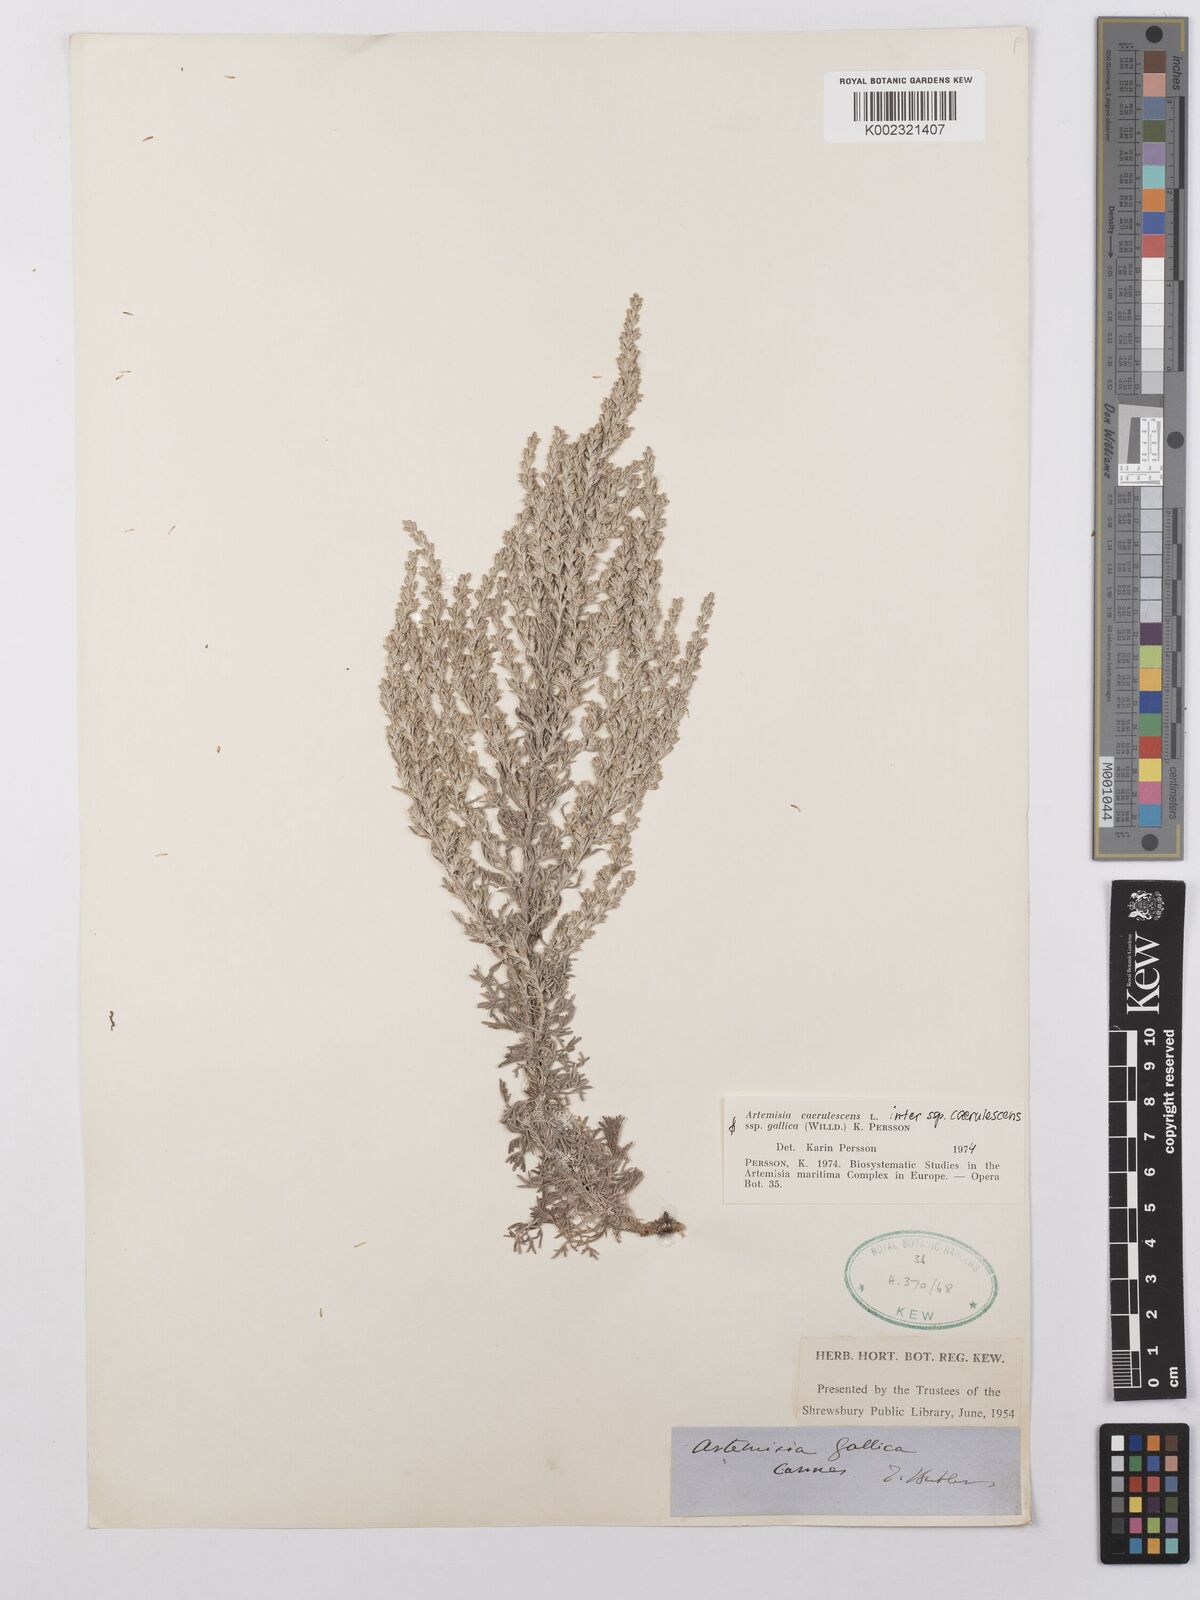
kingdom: Plantae
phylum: Tracheophyta
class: Magnoliopsida
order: Asterales
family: Asteraceae
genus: Artemisia
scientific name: Artemisia caerulescens
